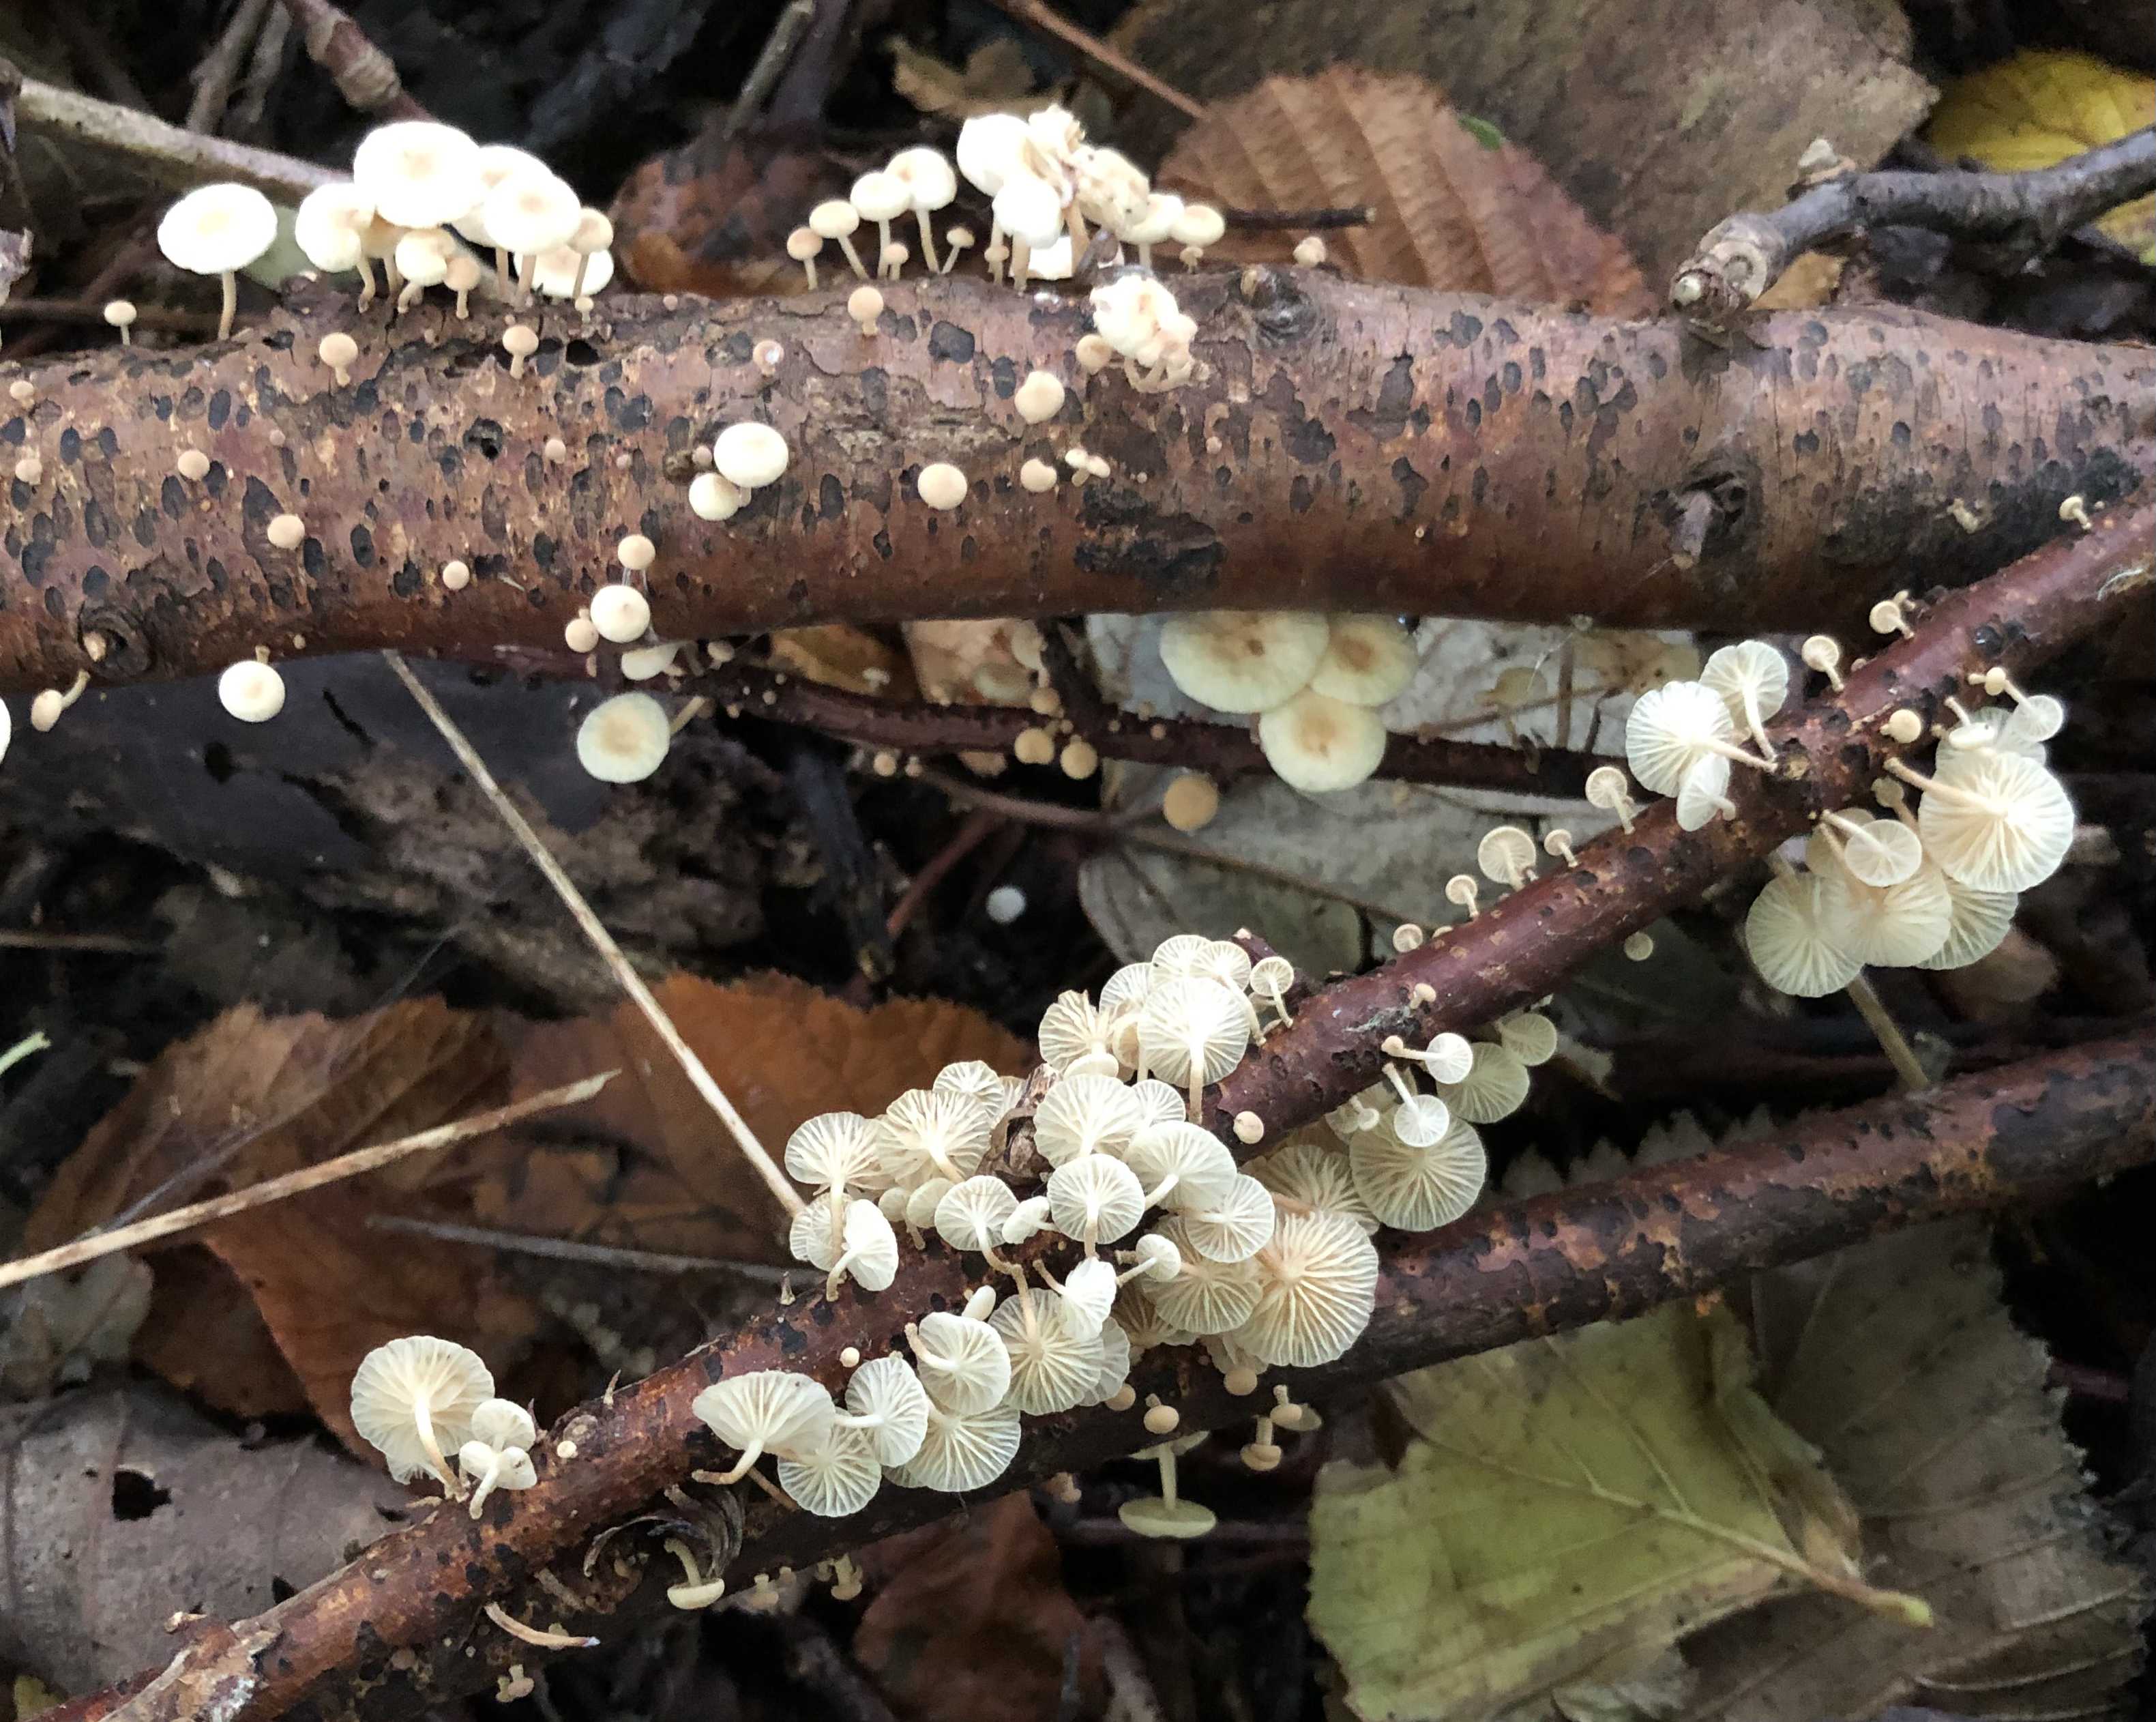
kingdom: Fungi
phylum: Basidiomycota
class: Agaricomycetes
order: Agaricales
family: Omphalotaceae
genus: Collybiopsis
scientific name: Collybiopsis ramealis
